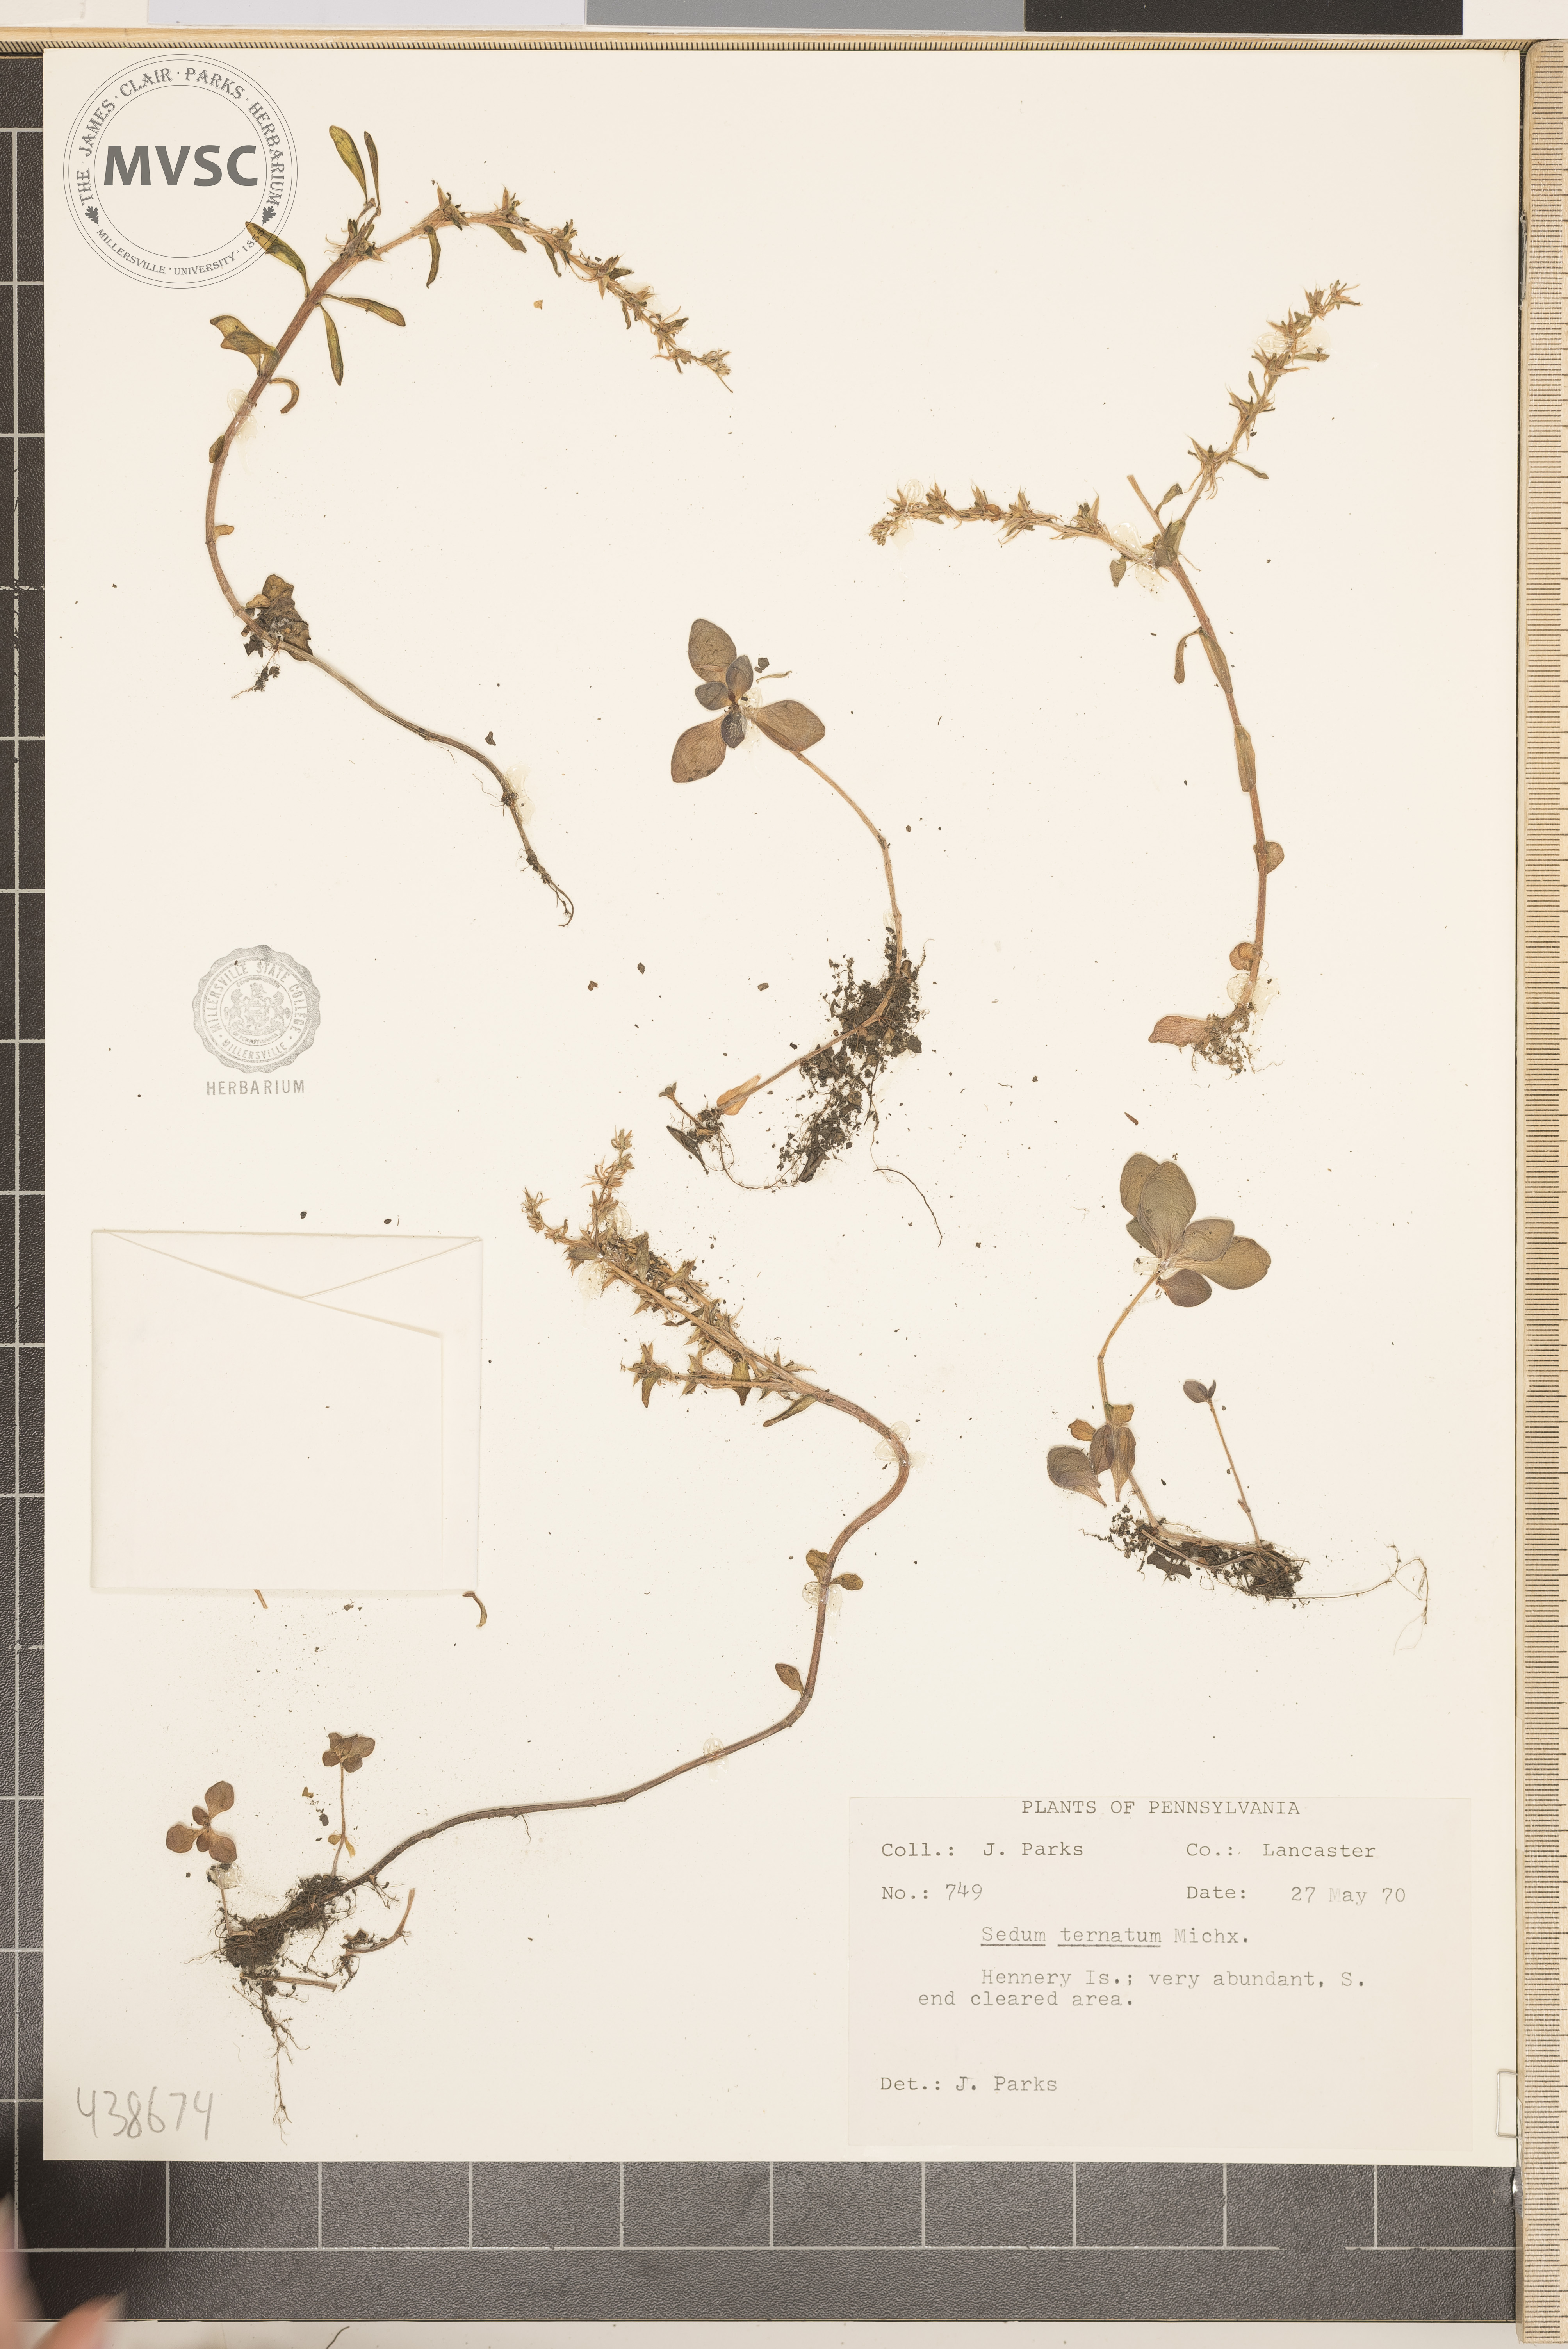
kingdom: Plantae
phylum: Tracheophyta
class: Magnoliopsida
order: Saxifragales
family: Crassulaceae
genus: Sedum
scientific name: Sedum ternatum
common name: Wild stonecrop
